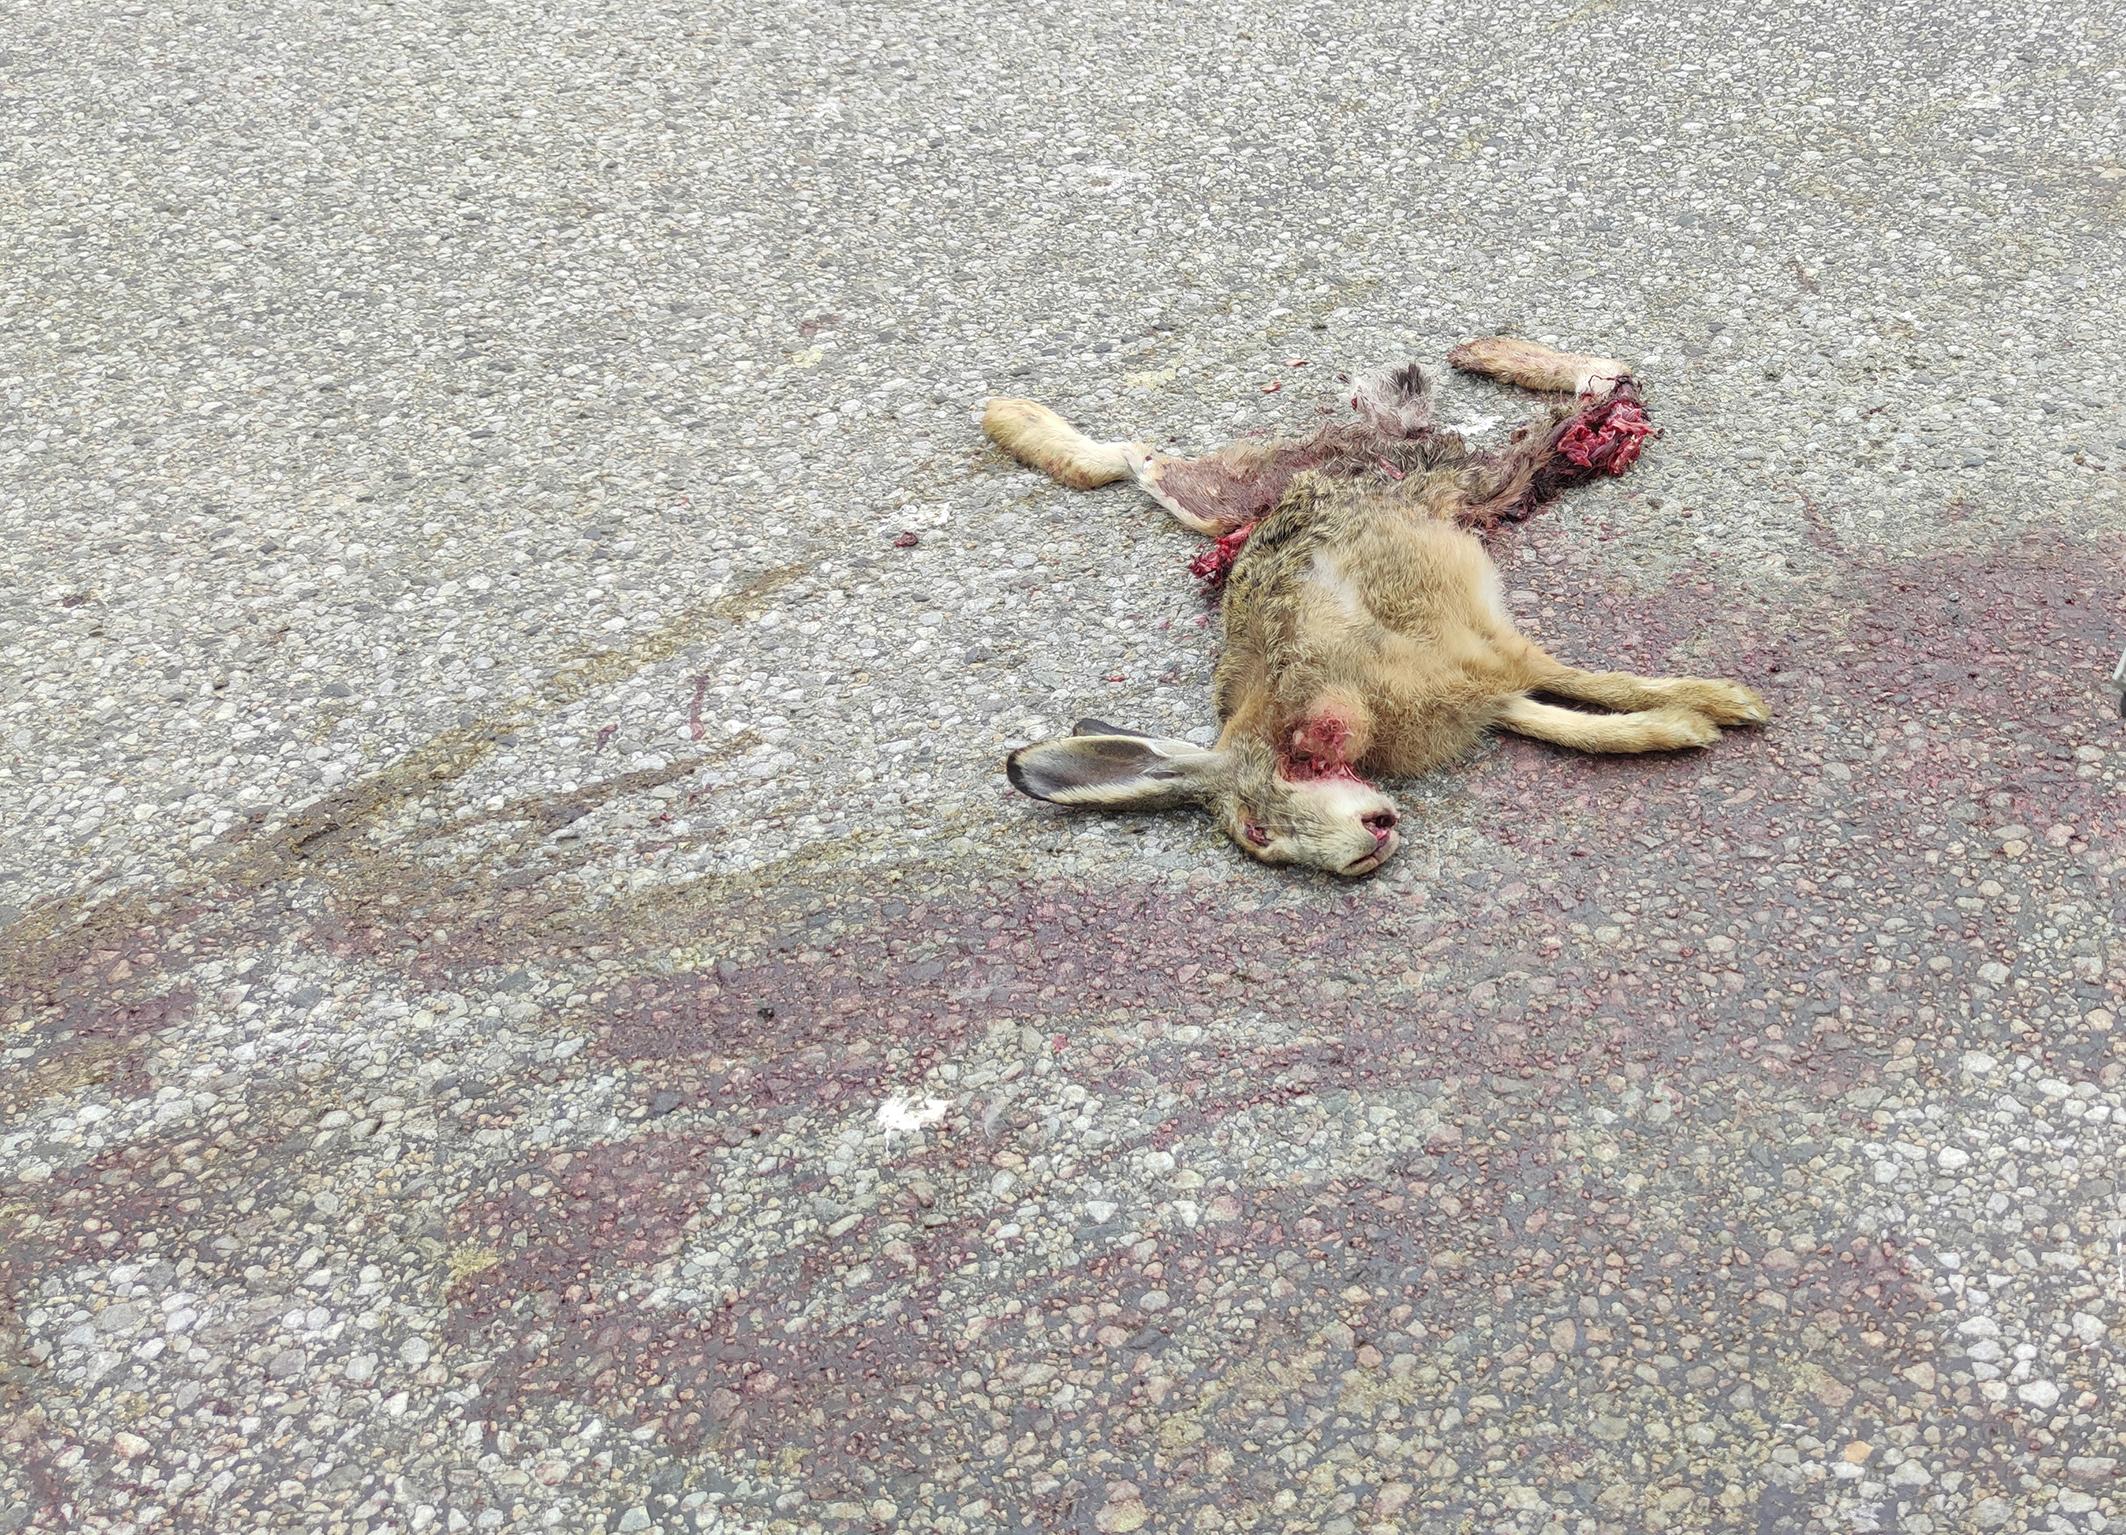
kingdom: Animalia
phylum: Chordata
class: Mammalia
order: Lagomorpha
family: Leporidae
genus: Lepus
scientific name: Lepus europaeus
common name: European hare
